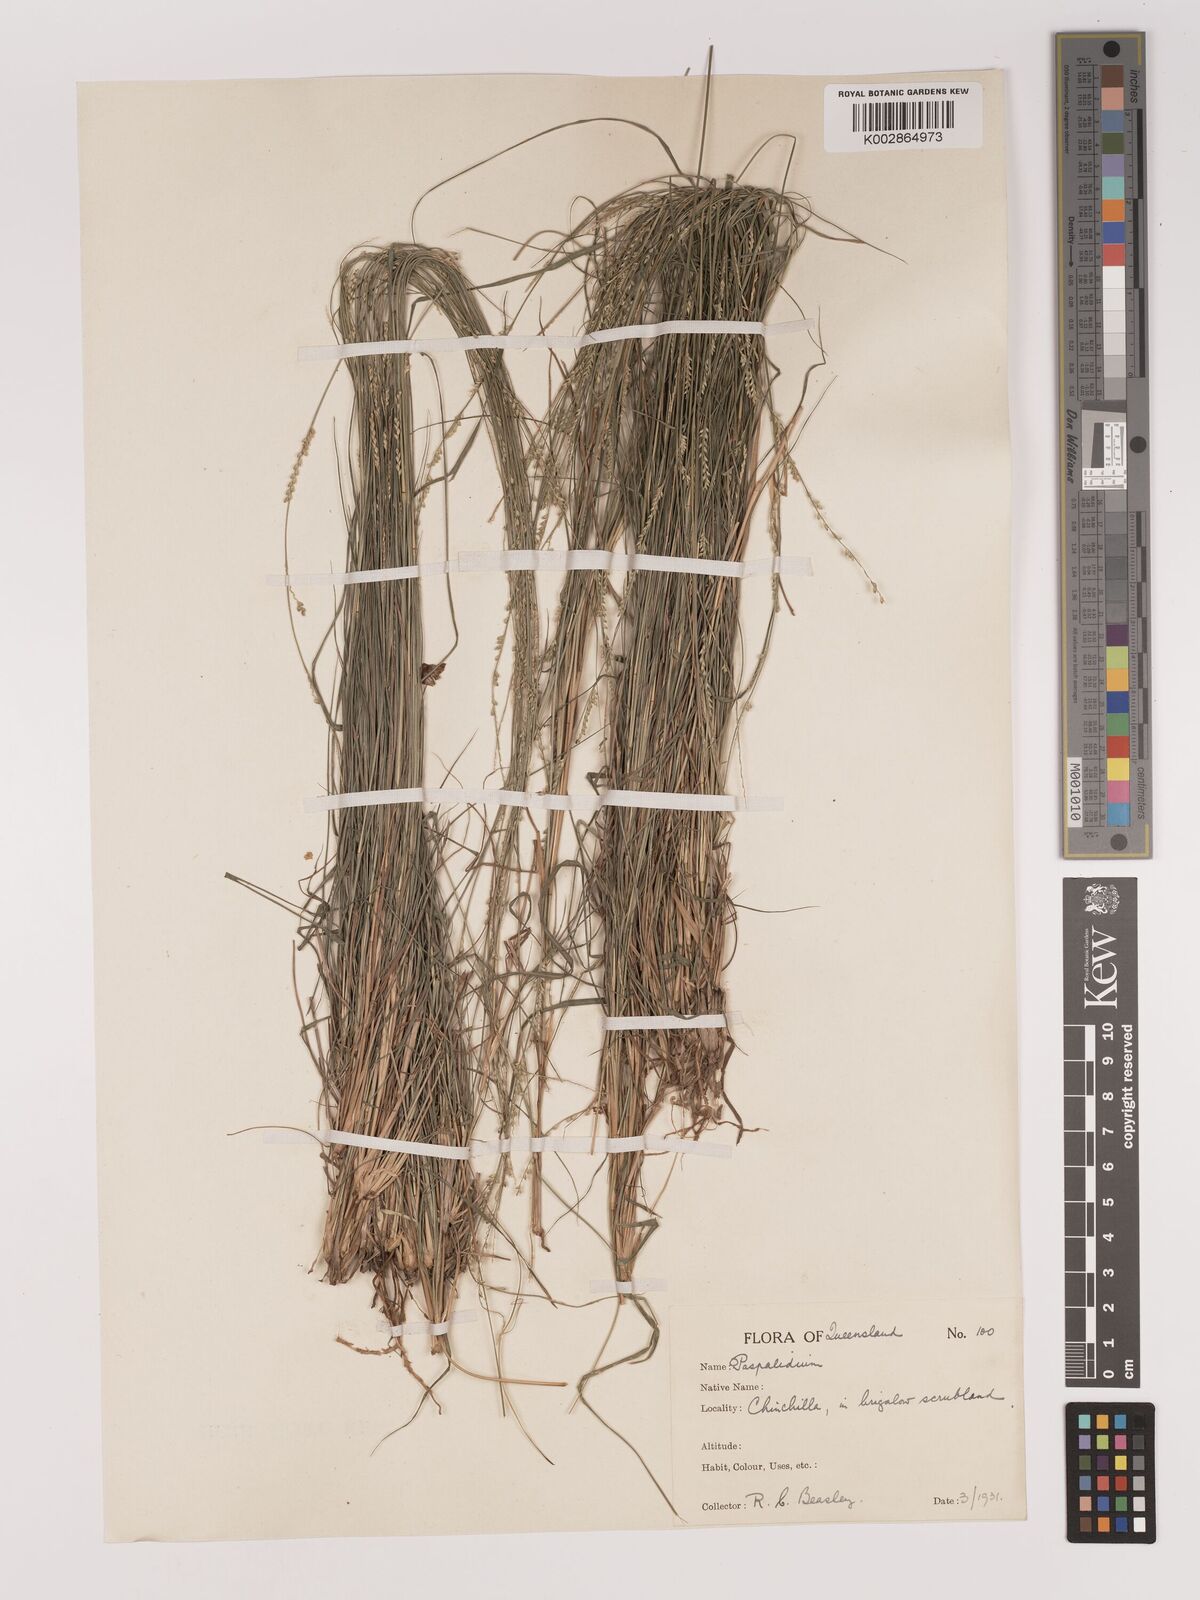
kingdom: Plantae
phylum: Tracheophyta
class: Liliopsida
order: Poales
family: Poaceae
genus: Setaria
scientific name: Setaria
